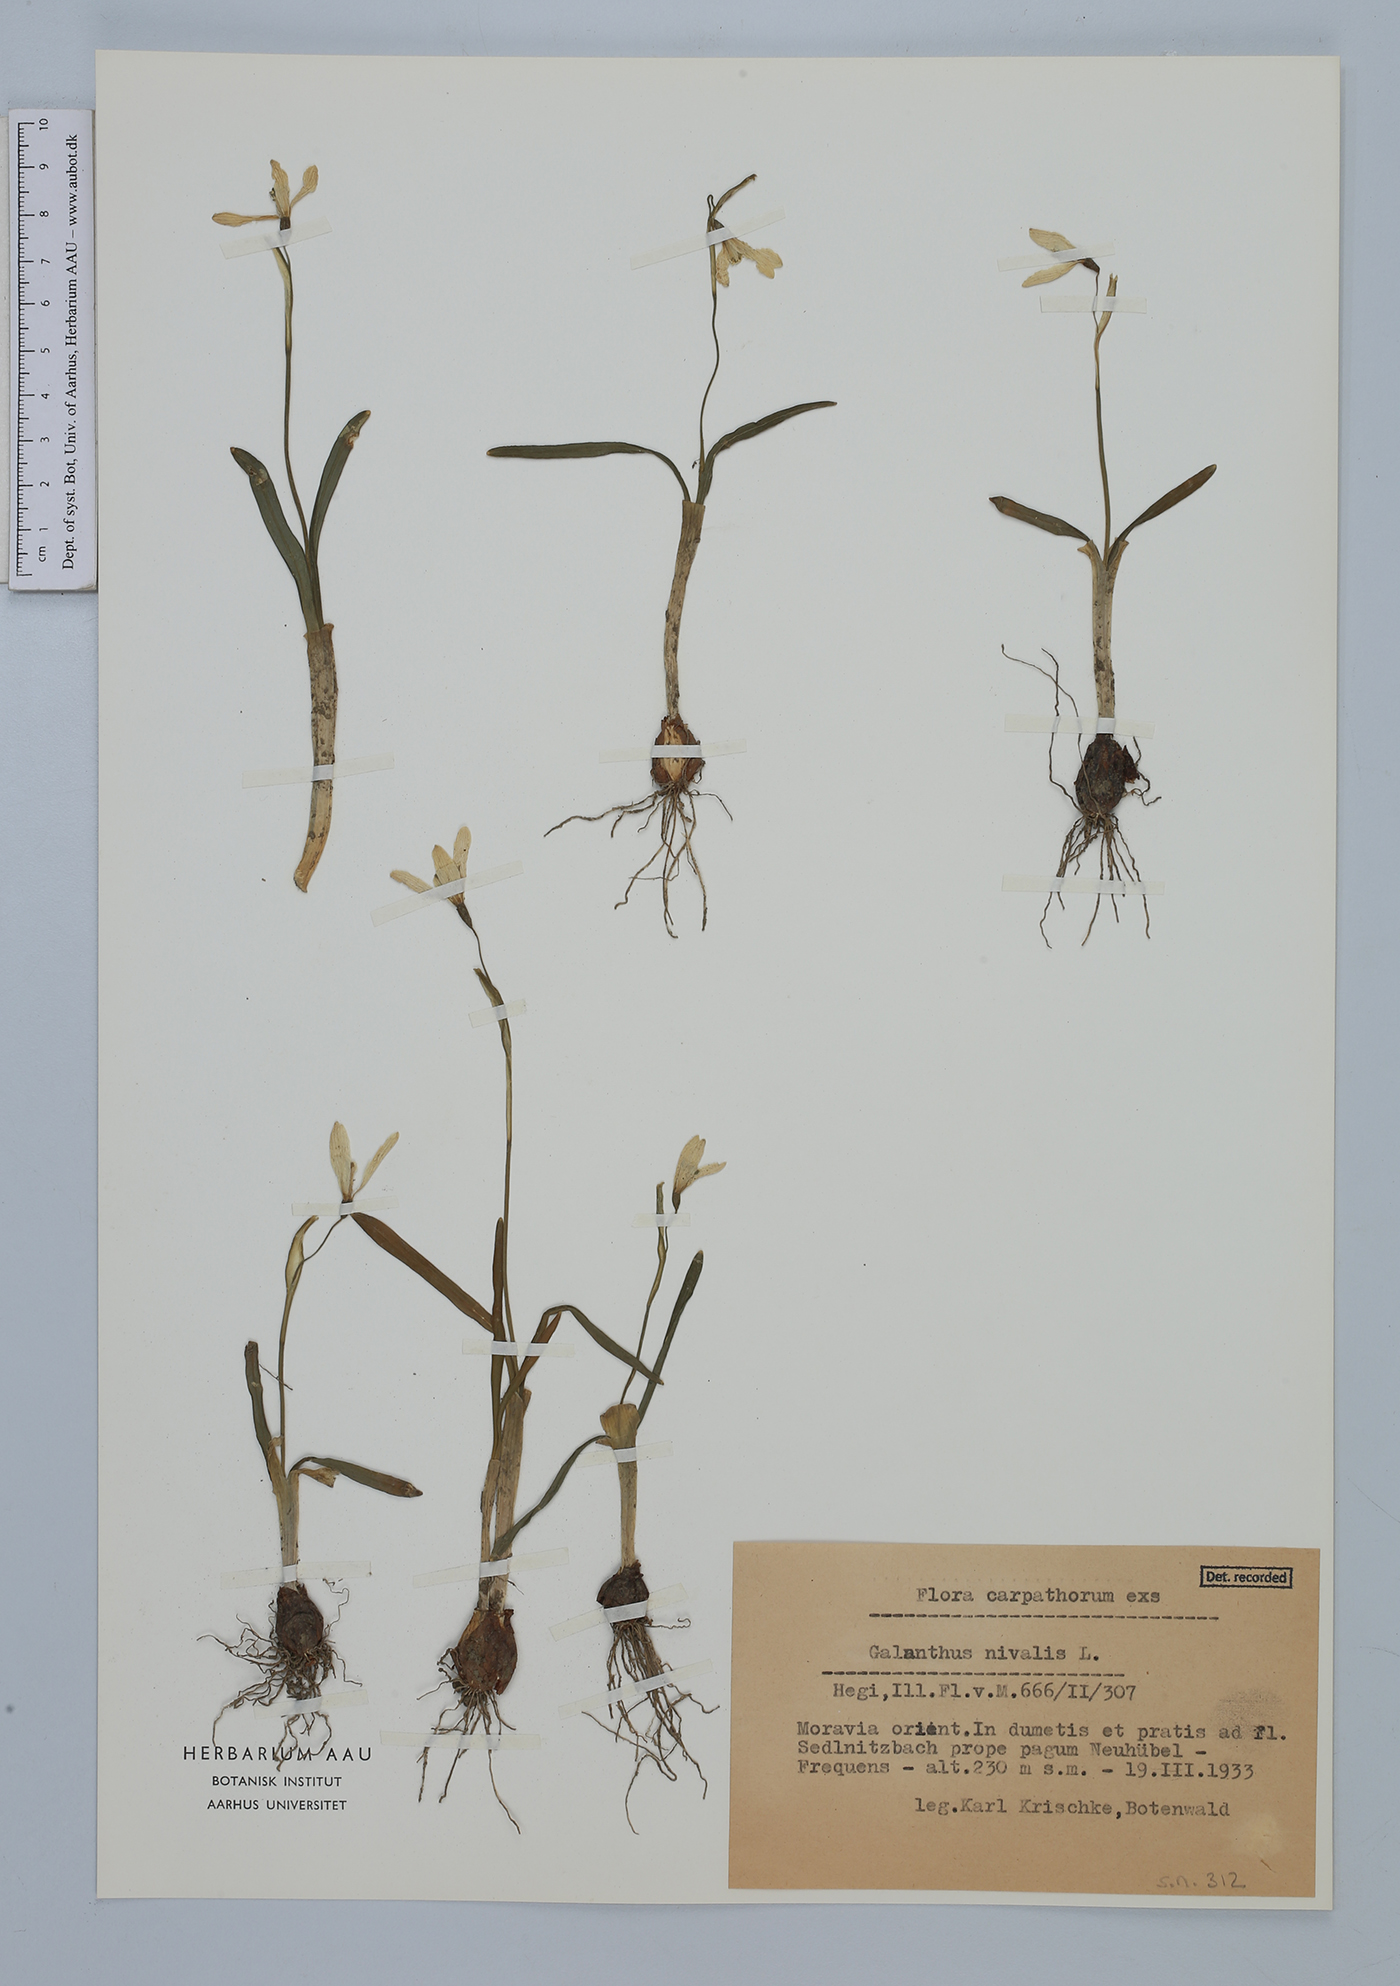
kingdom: Plantae
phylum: Tracheophyta
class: Liliopsida
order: Asparagales
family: Amaryllidaceae
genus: Galanthus
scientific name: Galanthus nivalis
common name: Snowdrop
